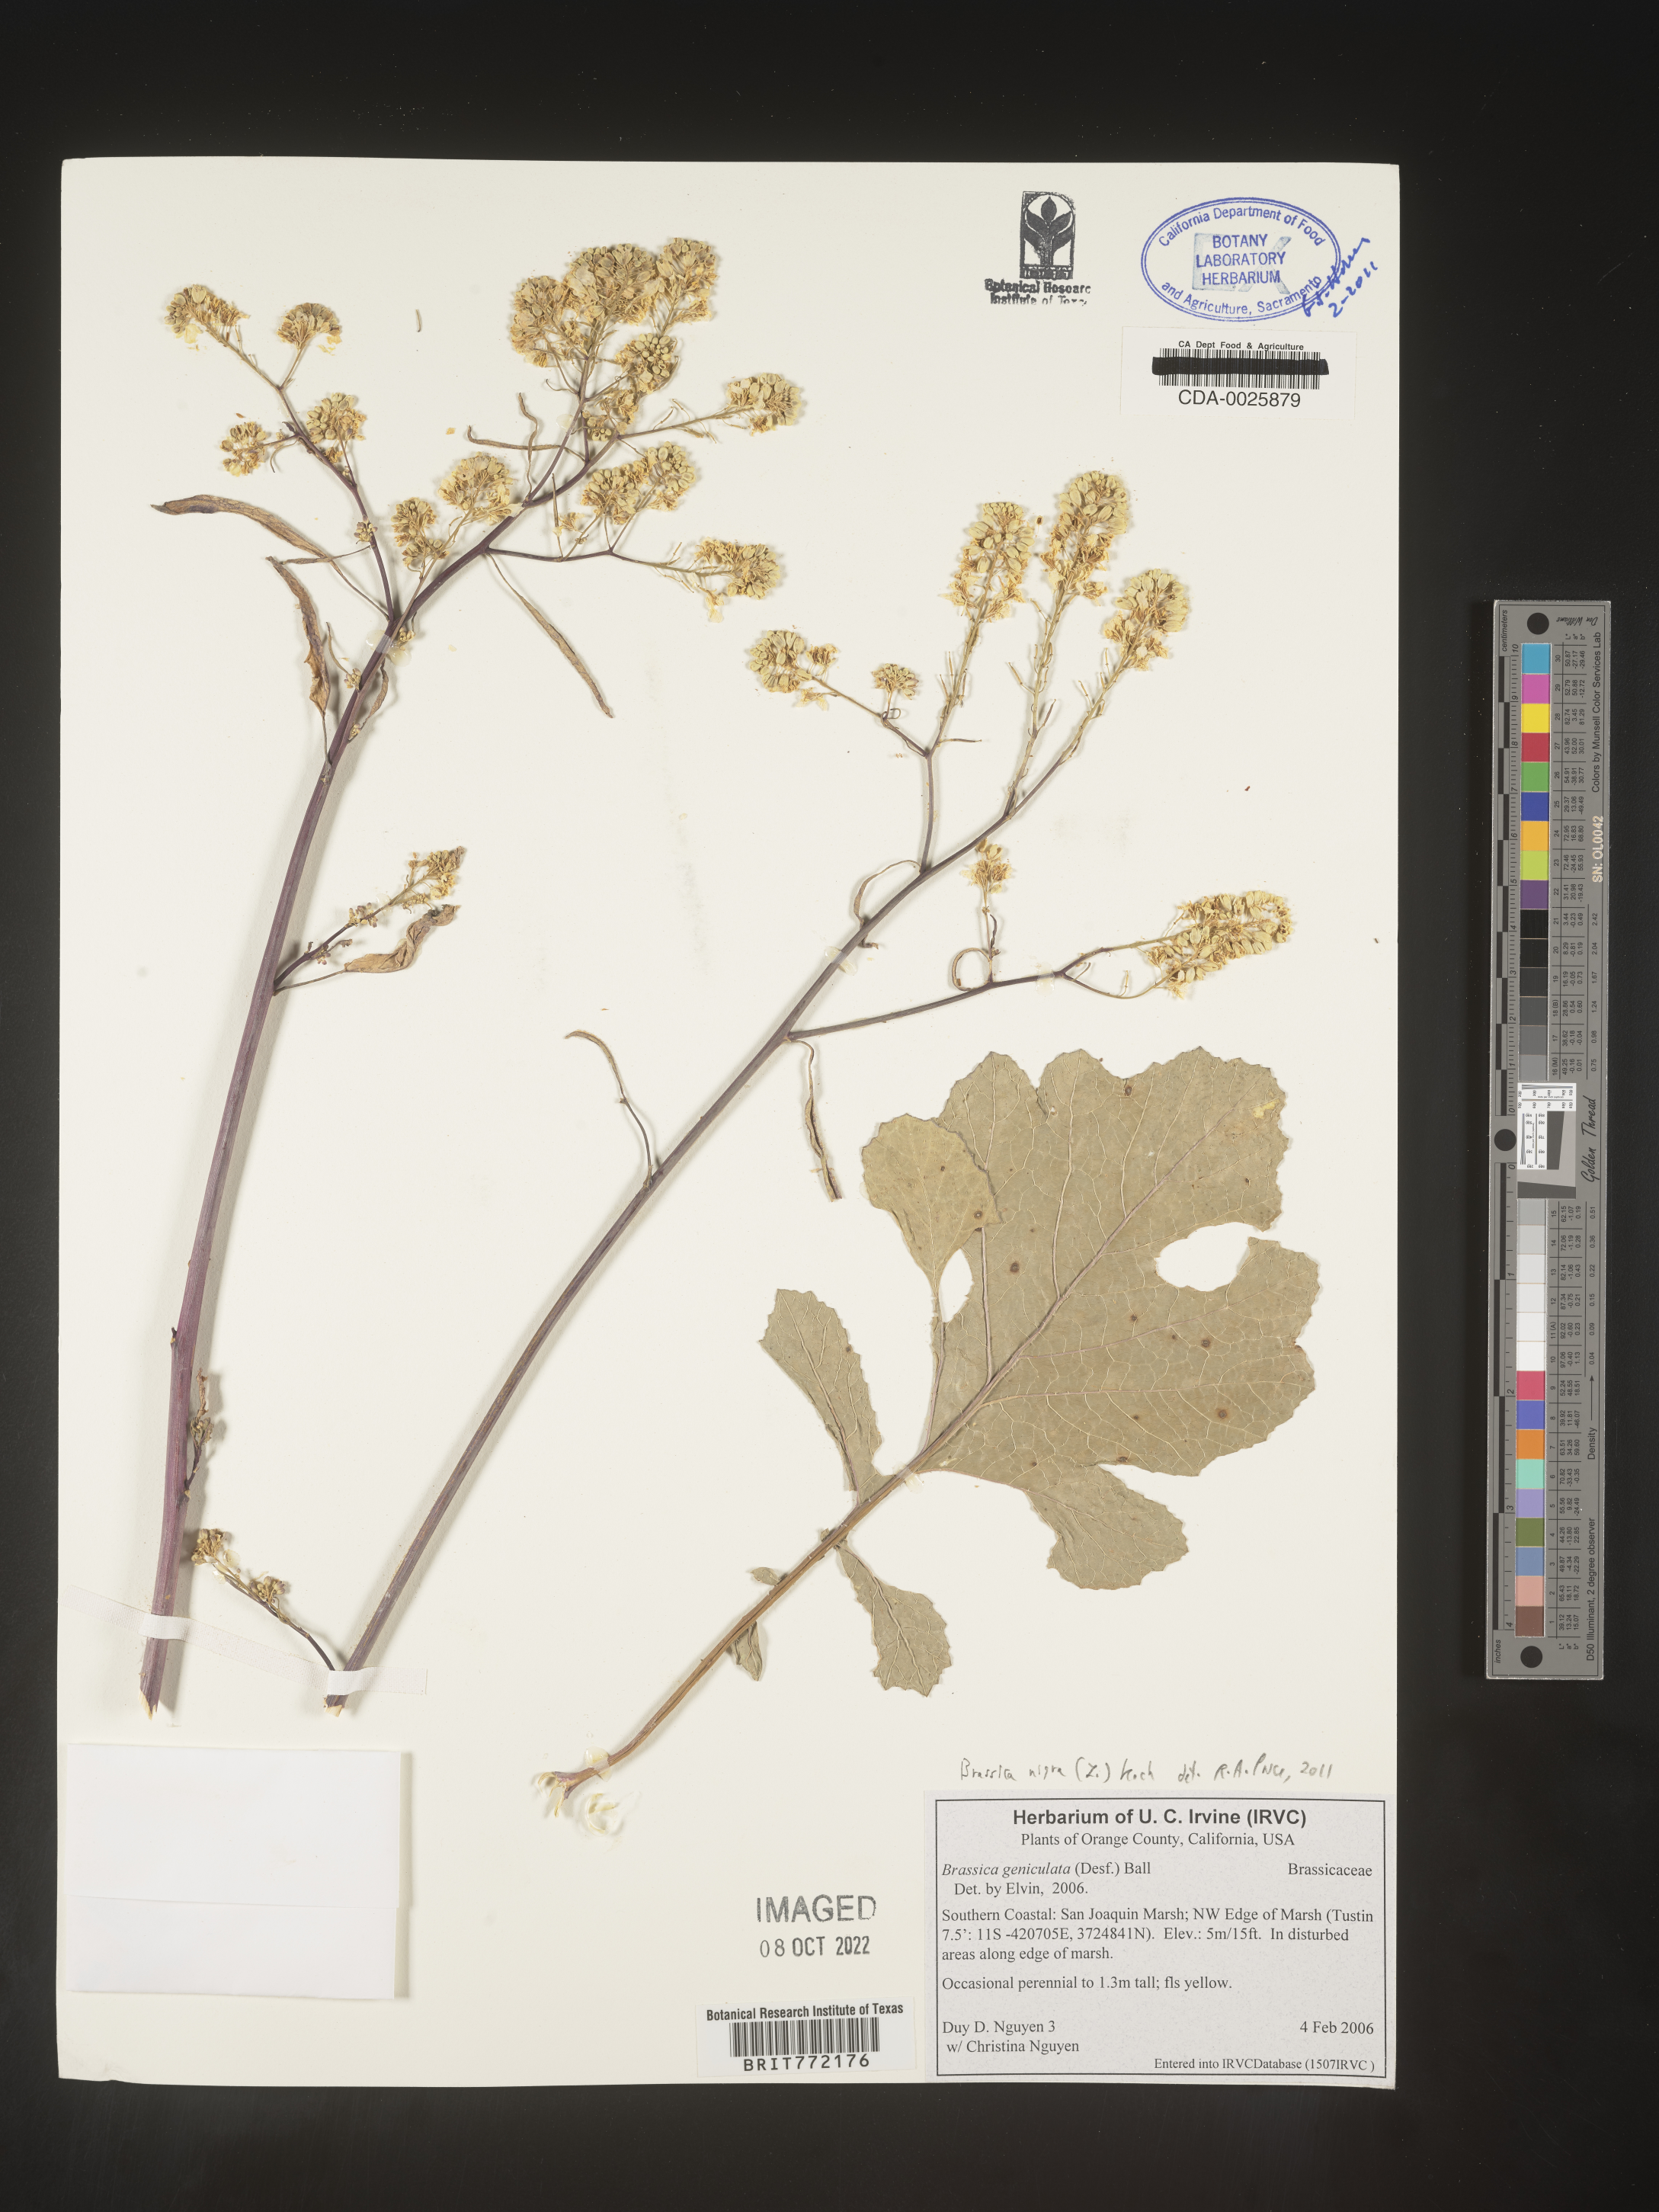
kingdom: Plantae
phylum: Tracheophyta
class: Magnoliopsida
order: Brassicales
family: Brassicaceae
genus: Brassica
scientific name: Brassica nigra
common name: Black mustard
